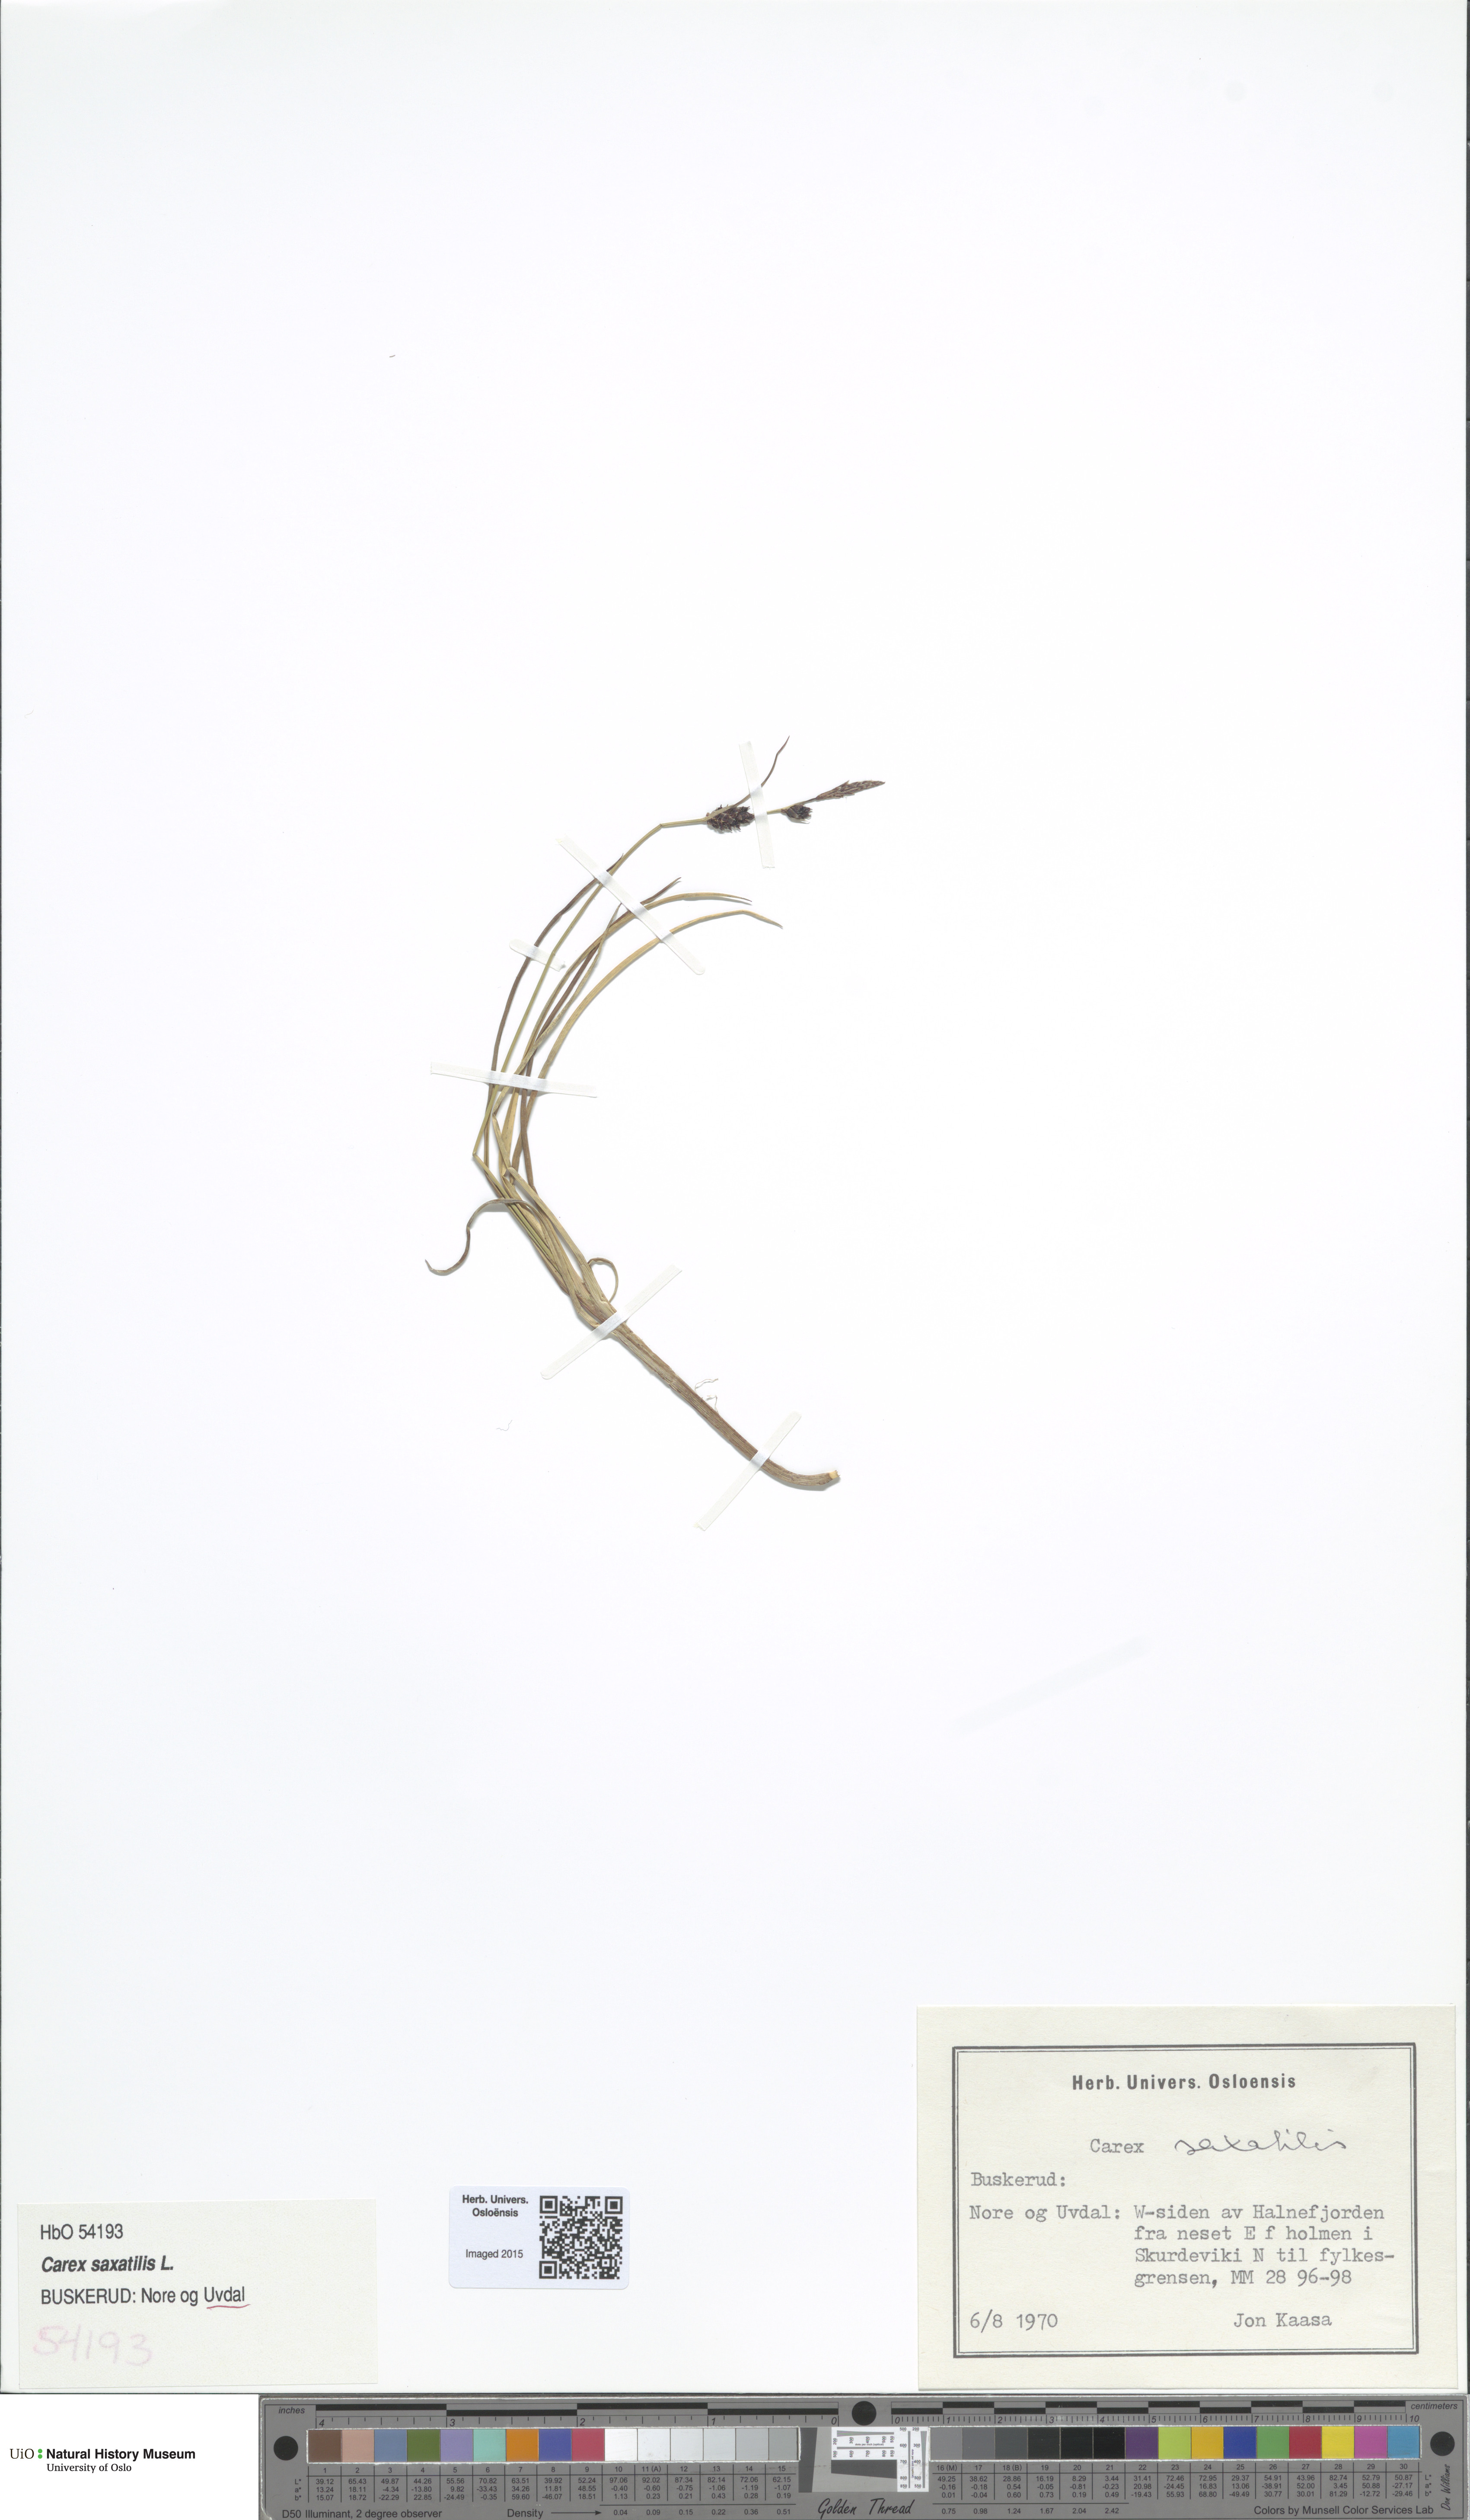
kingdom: Plantae
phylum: Tracheophyta
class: Liliopsida
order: Poales
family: Cyperaceae
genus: Carex
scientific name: Carex saxatilis
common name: Russet sedge
